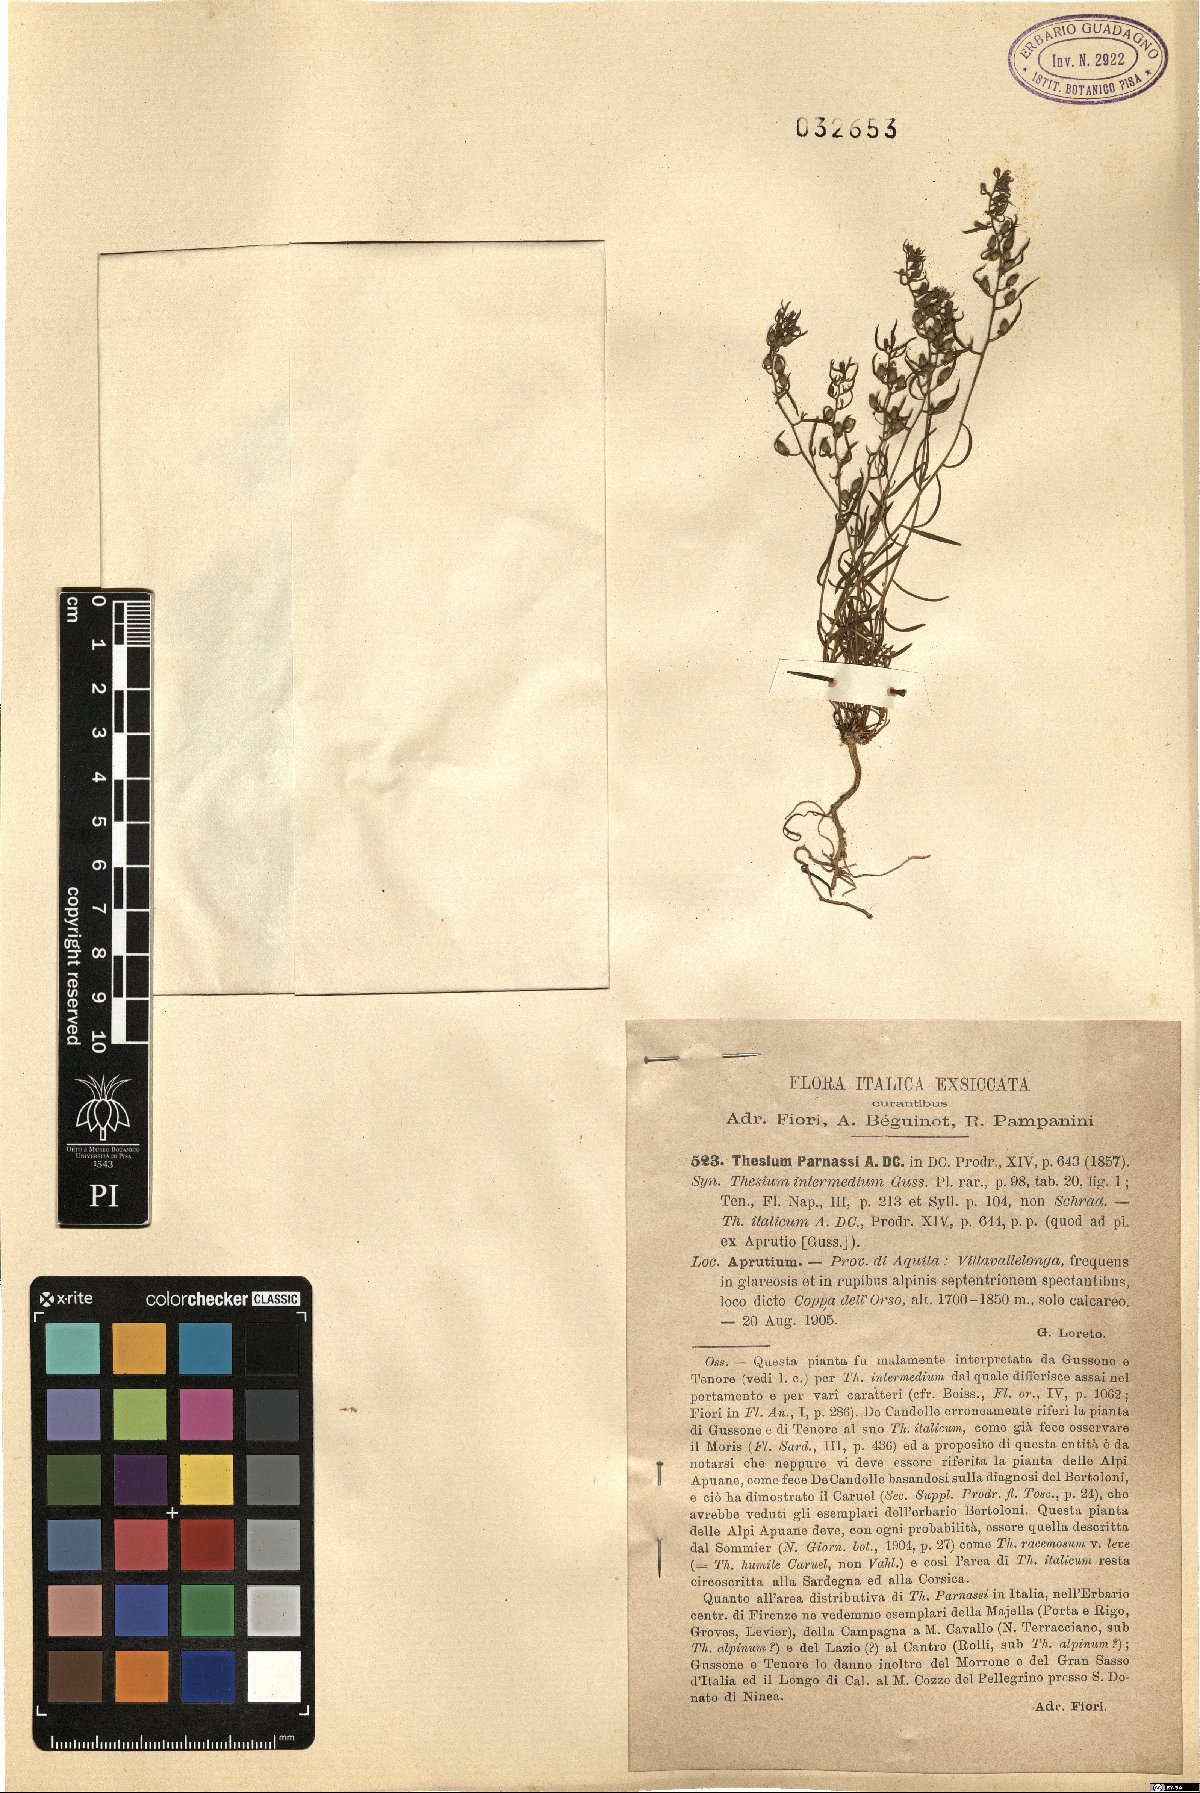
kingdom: Plantae
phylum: Tracheophyta
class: Magnoliopsida
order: Santalales
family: Thesiaceae
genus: Thesium
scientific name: Thesium parnassi
